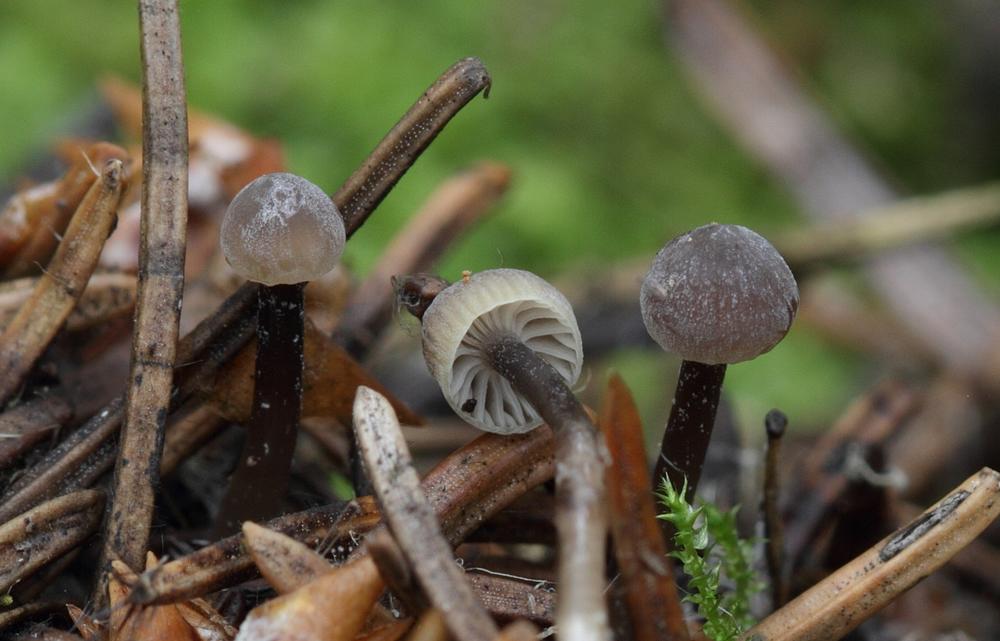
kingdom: Fungi
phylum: Basidiomycota
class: Agaricomycetes
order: Agaricales
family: Mycenaceae
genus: Mycena
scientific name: Mycena vulgaris
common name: klæbrig huesvamp
